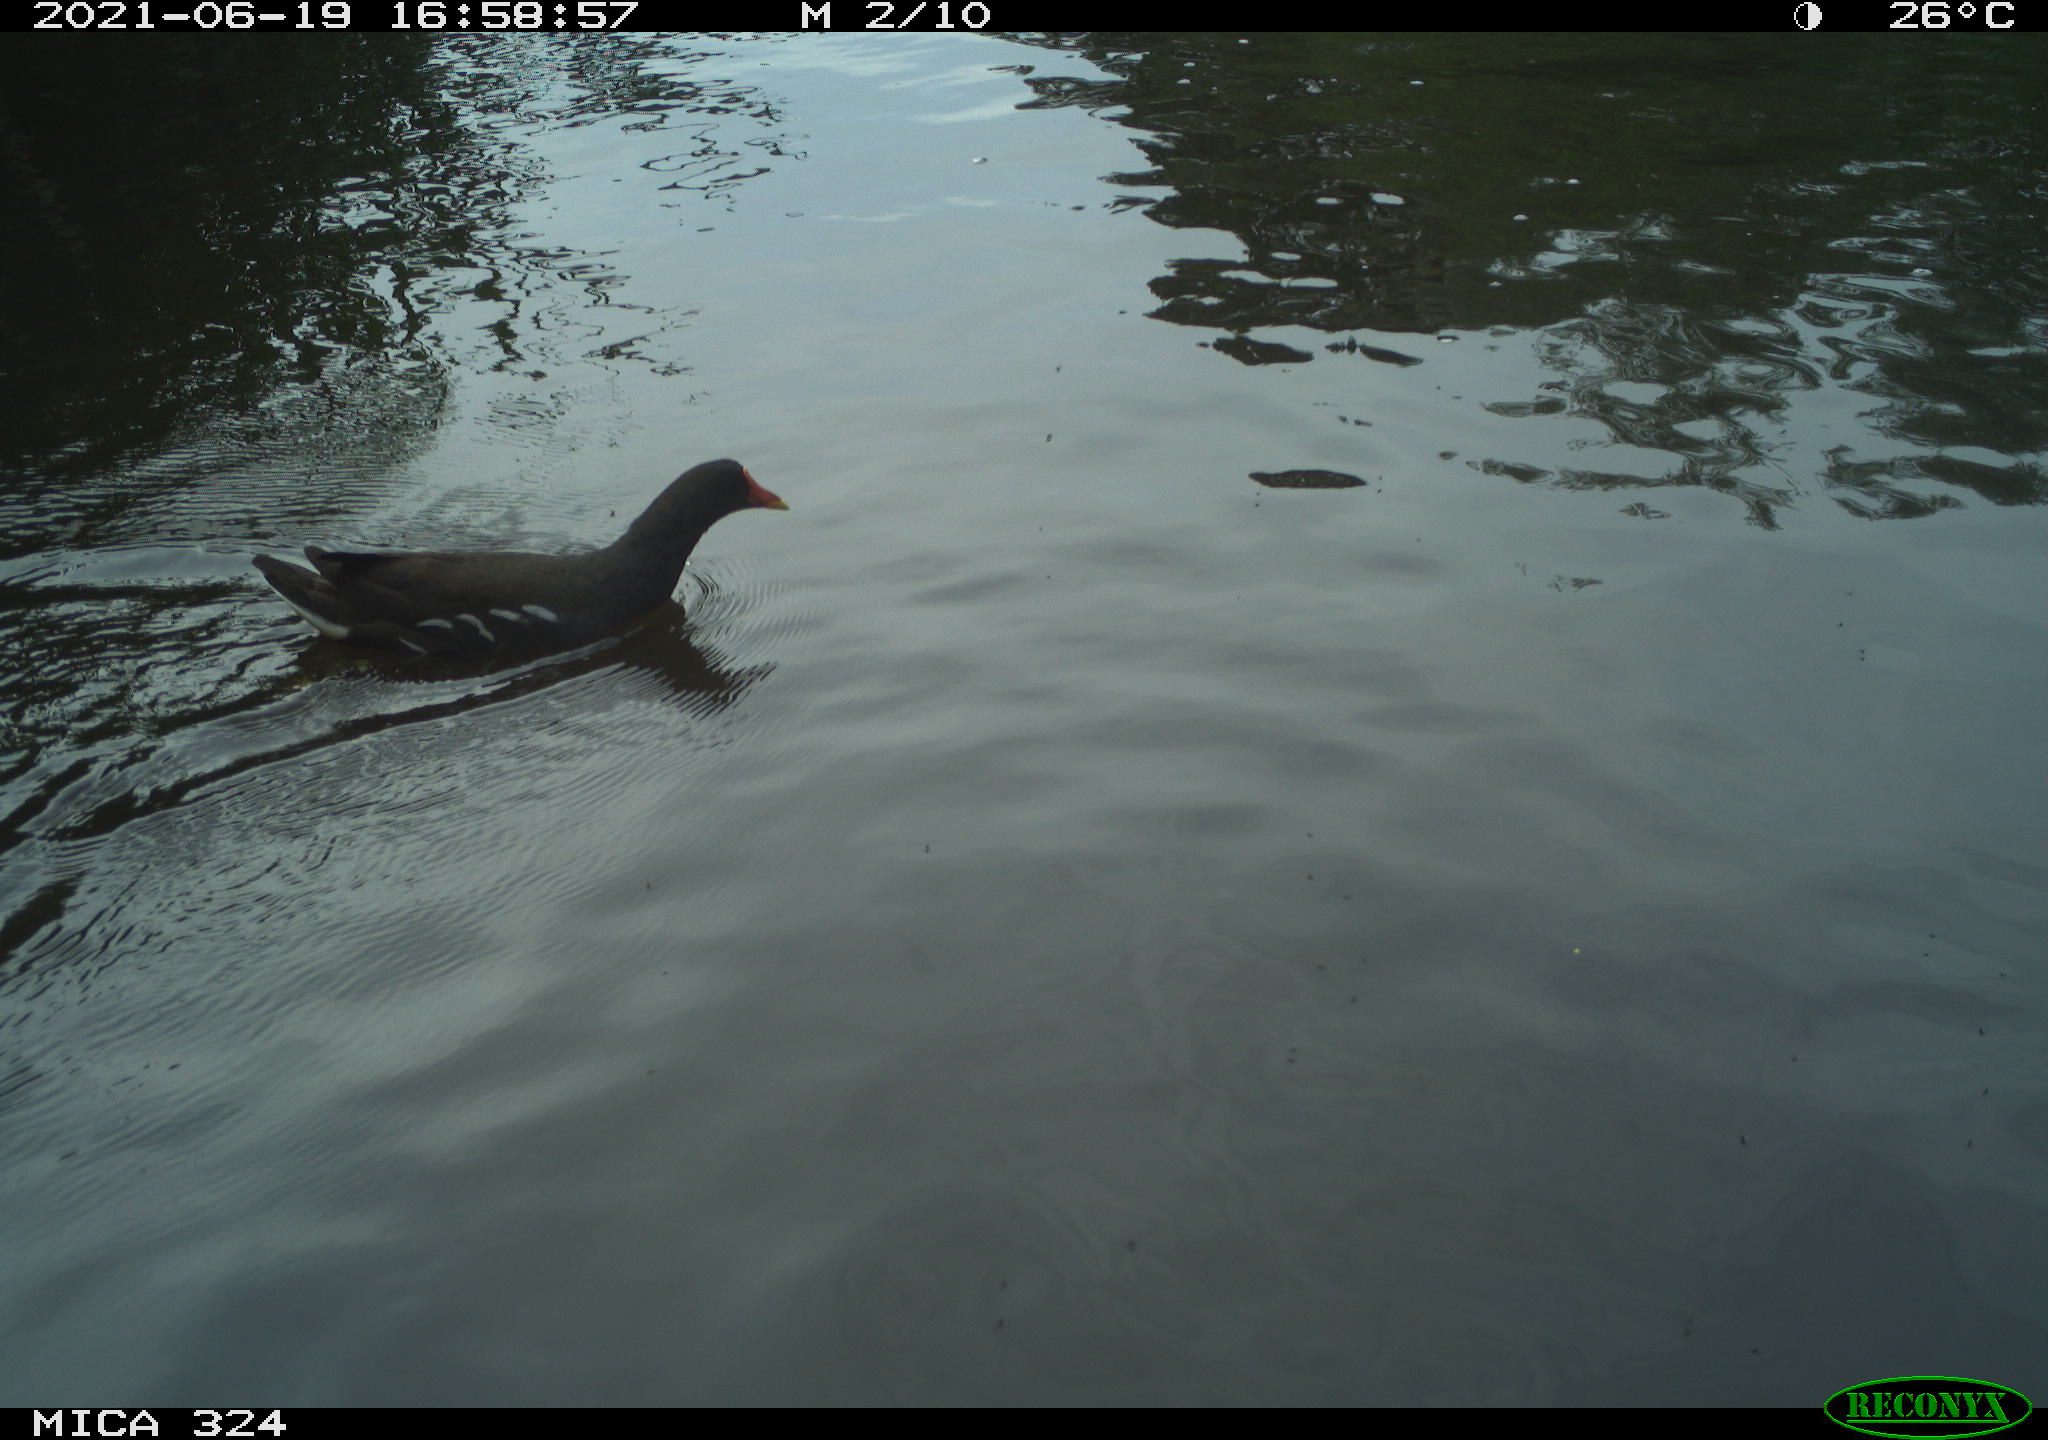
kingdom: Animalia
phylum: Chordata
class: Aves
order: Gruiformes
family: Rallidae
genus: Gallinula
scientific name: Gallinula chloropus
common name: Common moorhen
